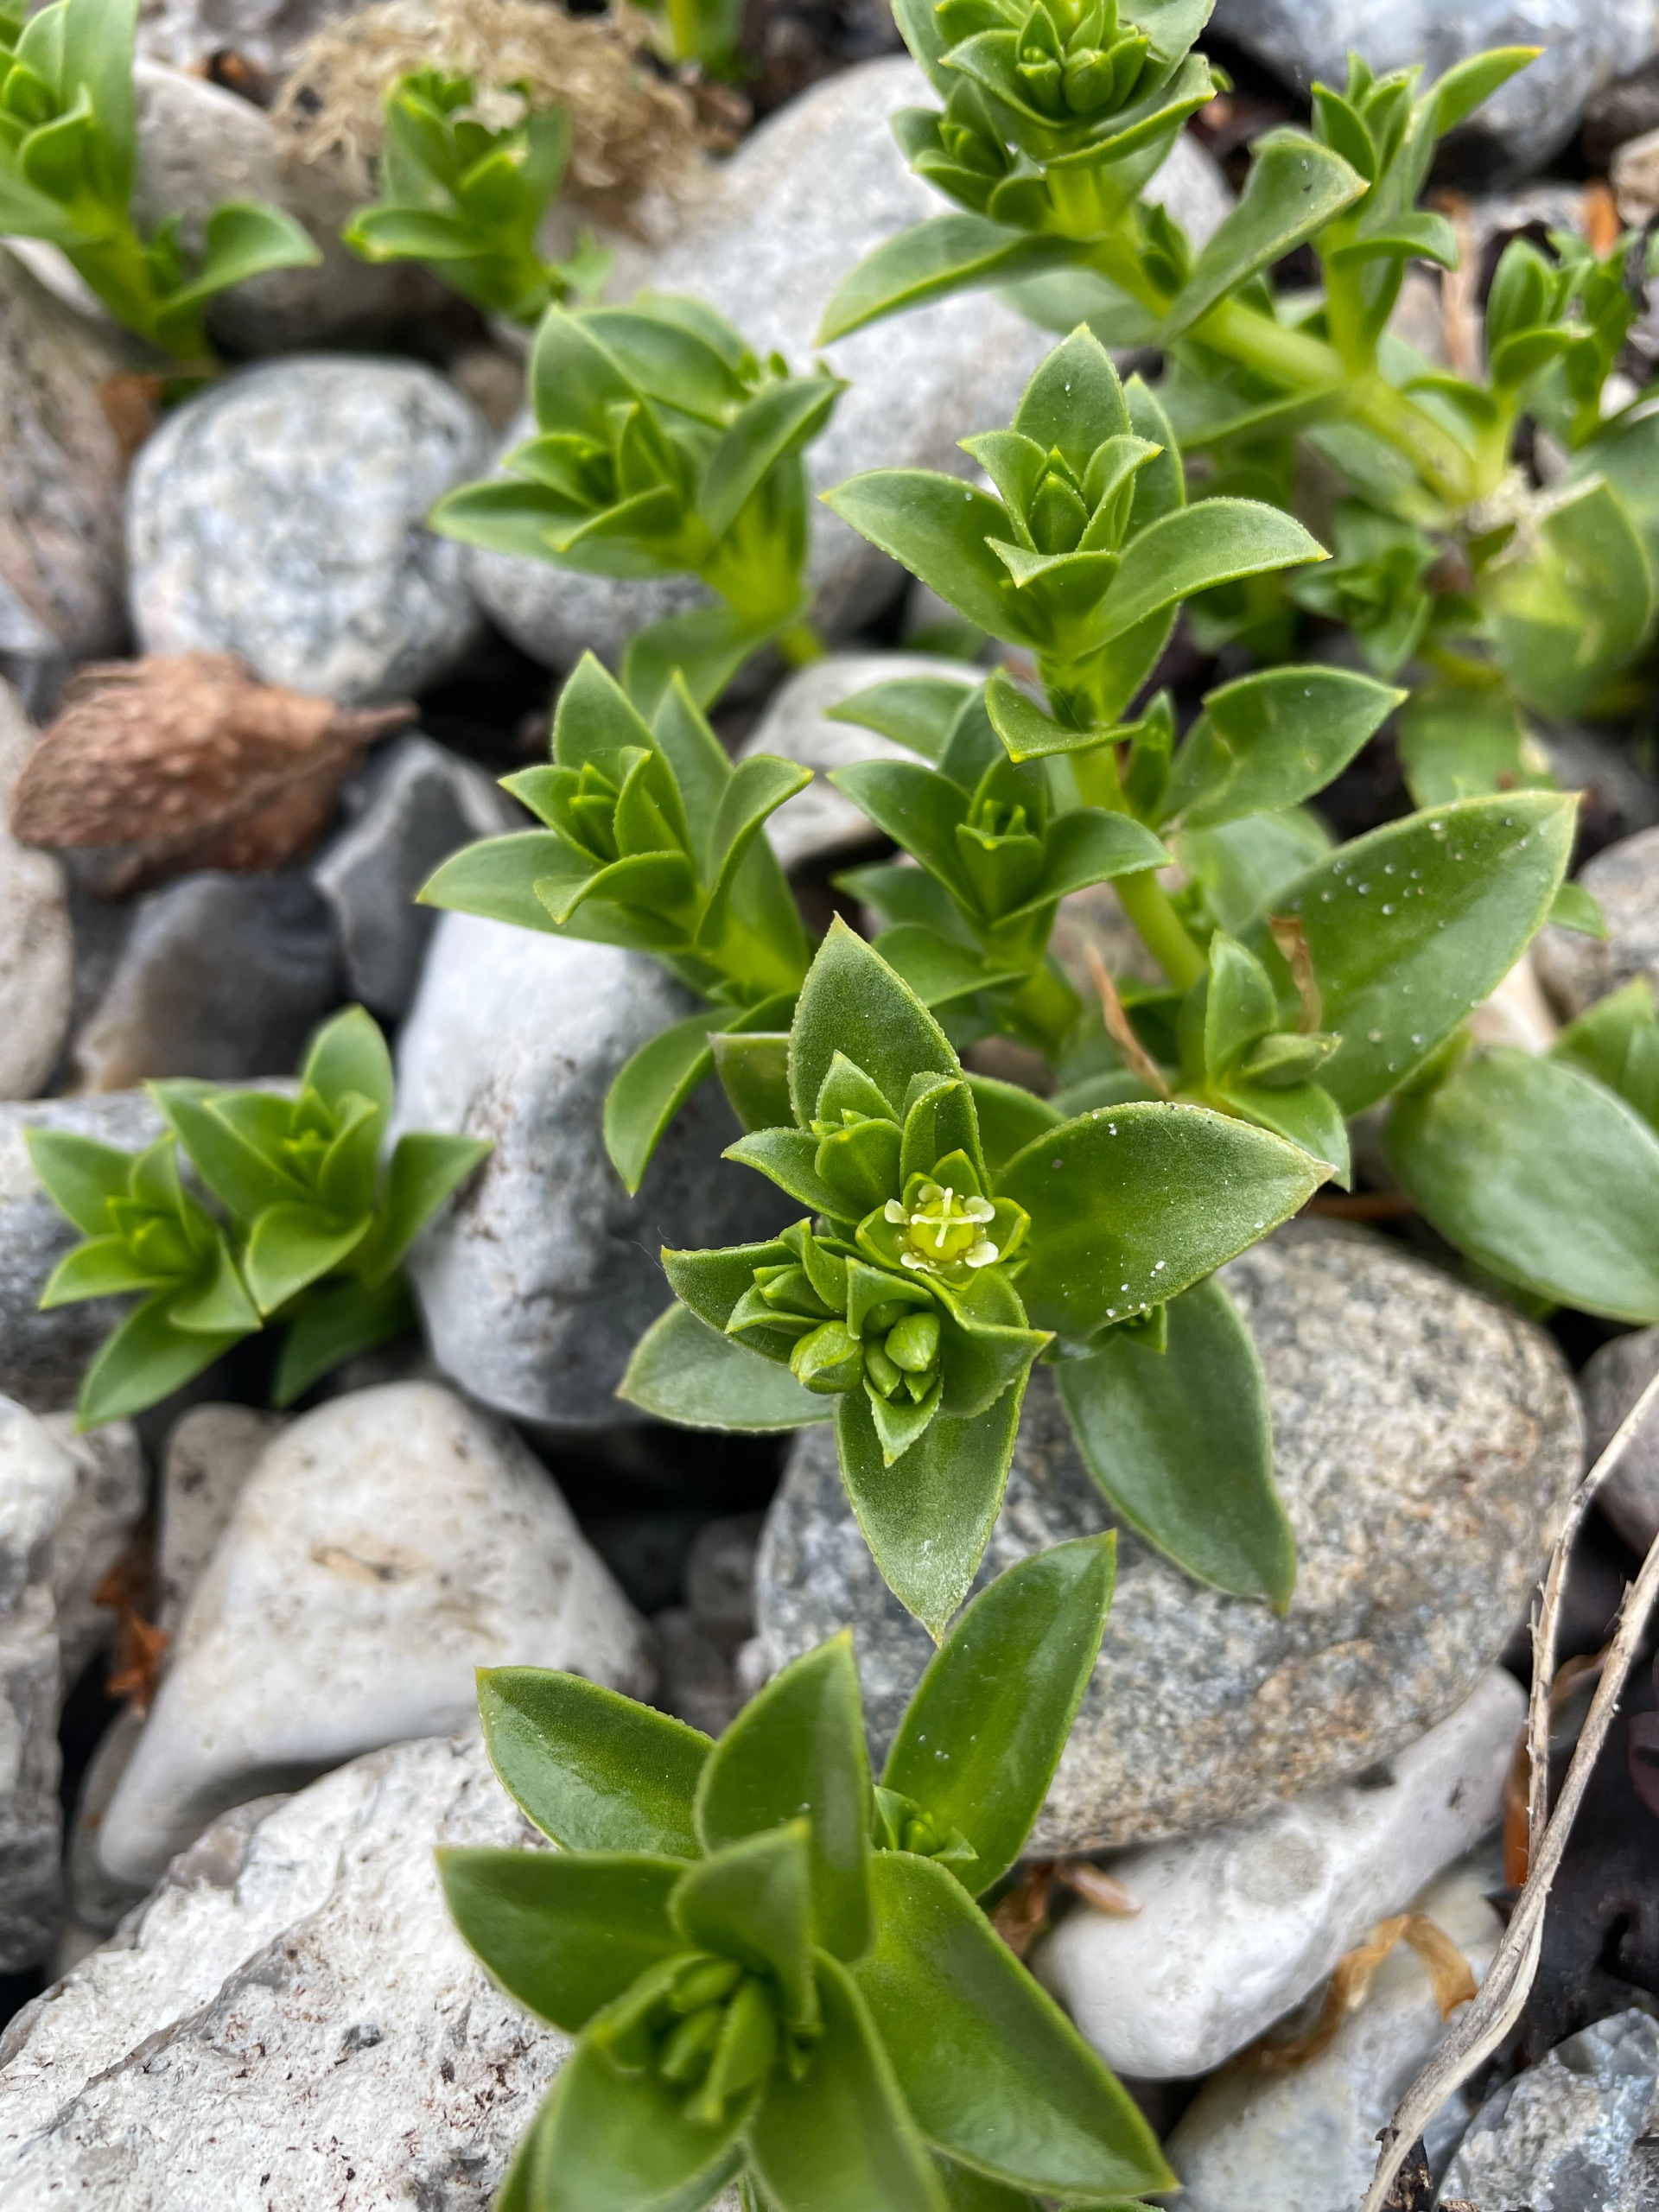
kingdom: Plantae
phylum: Tracheophyta
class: Magnoliopsida
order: Caryophyllales
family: Caryophyllaceae
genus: Honckenya
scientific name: Honckenya peploides
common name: Strandarve
